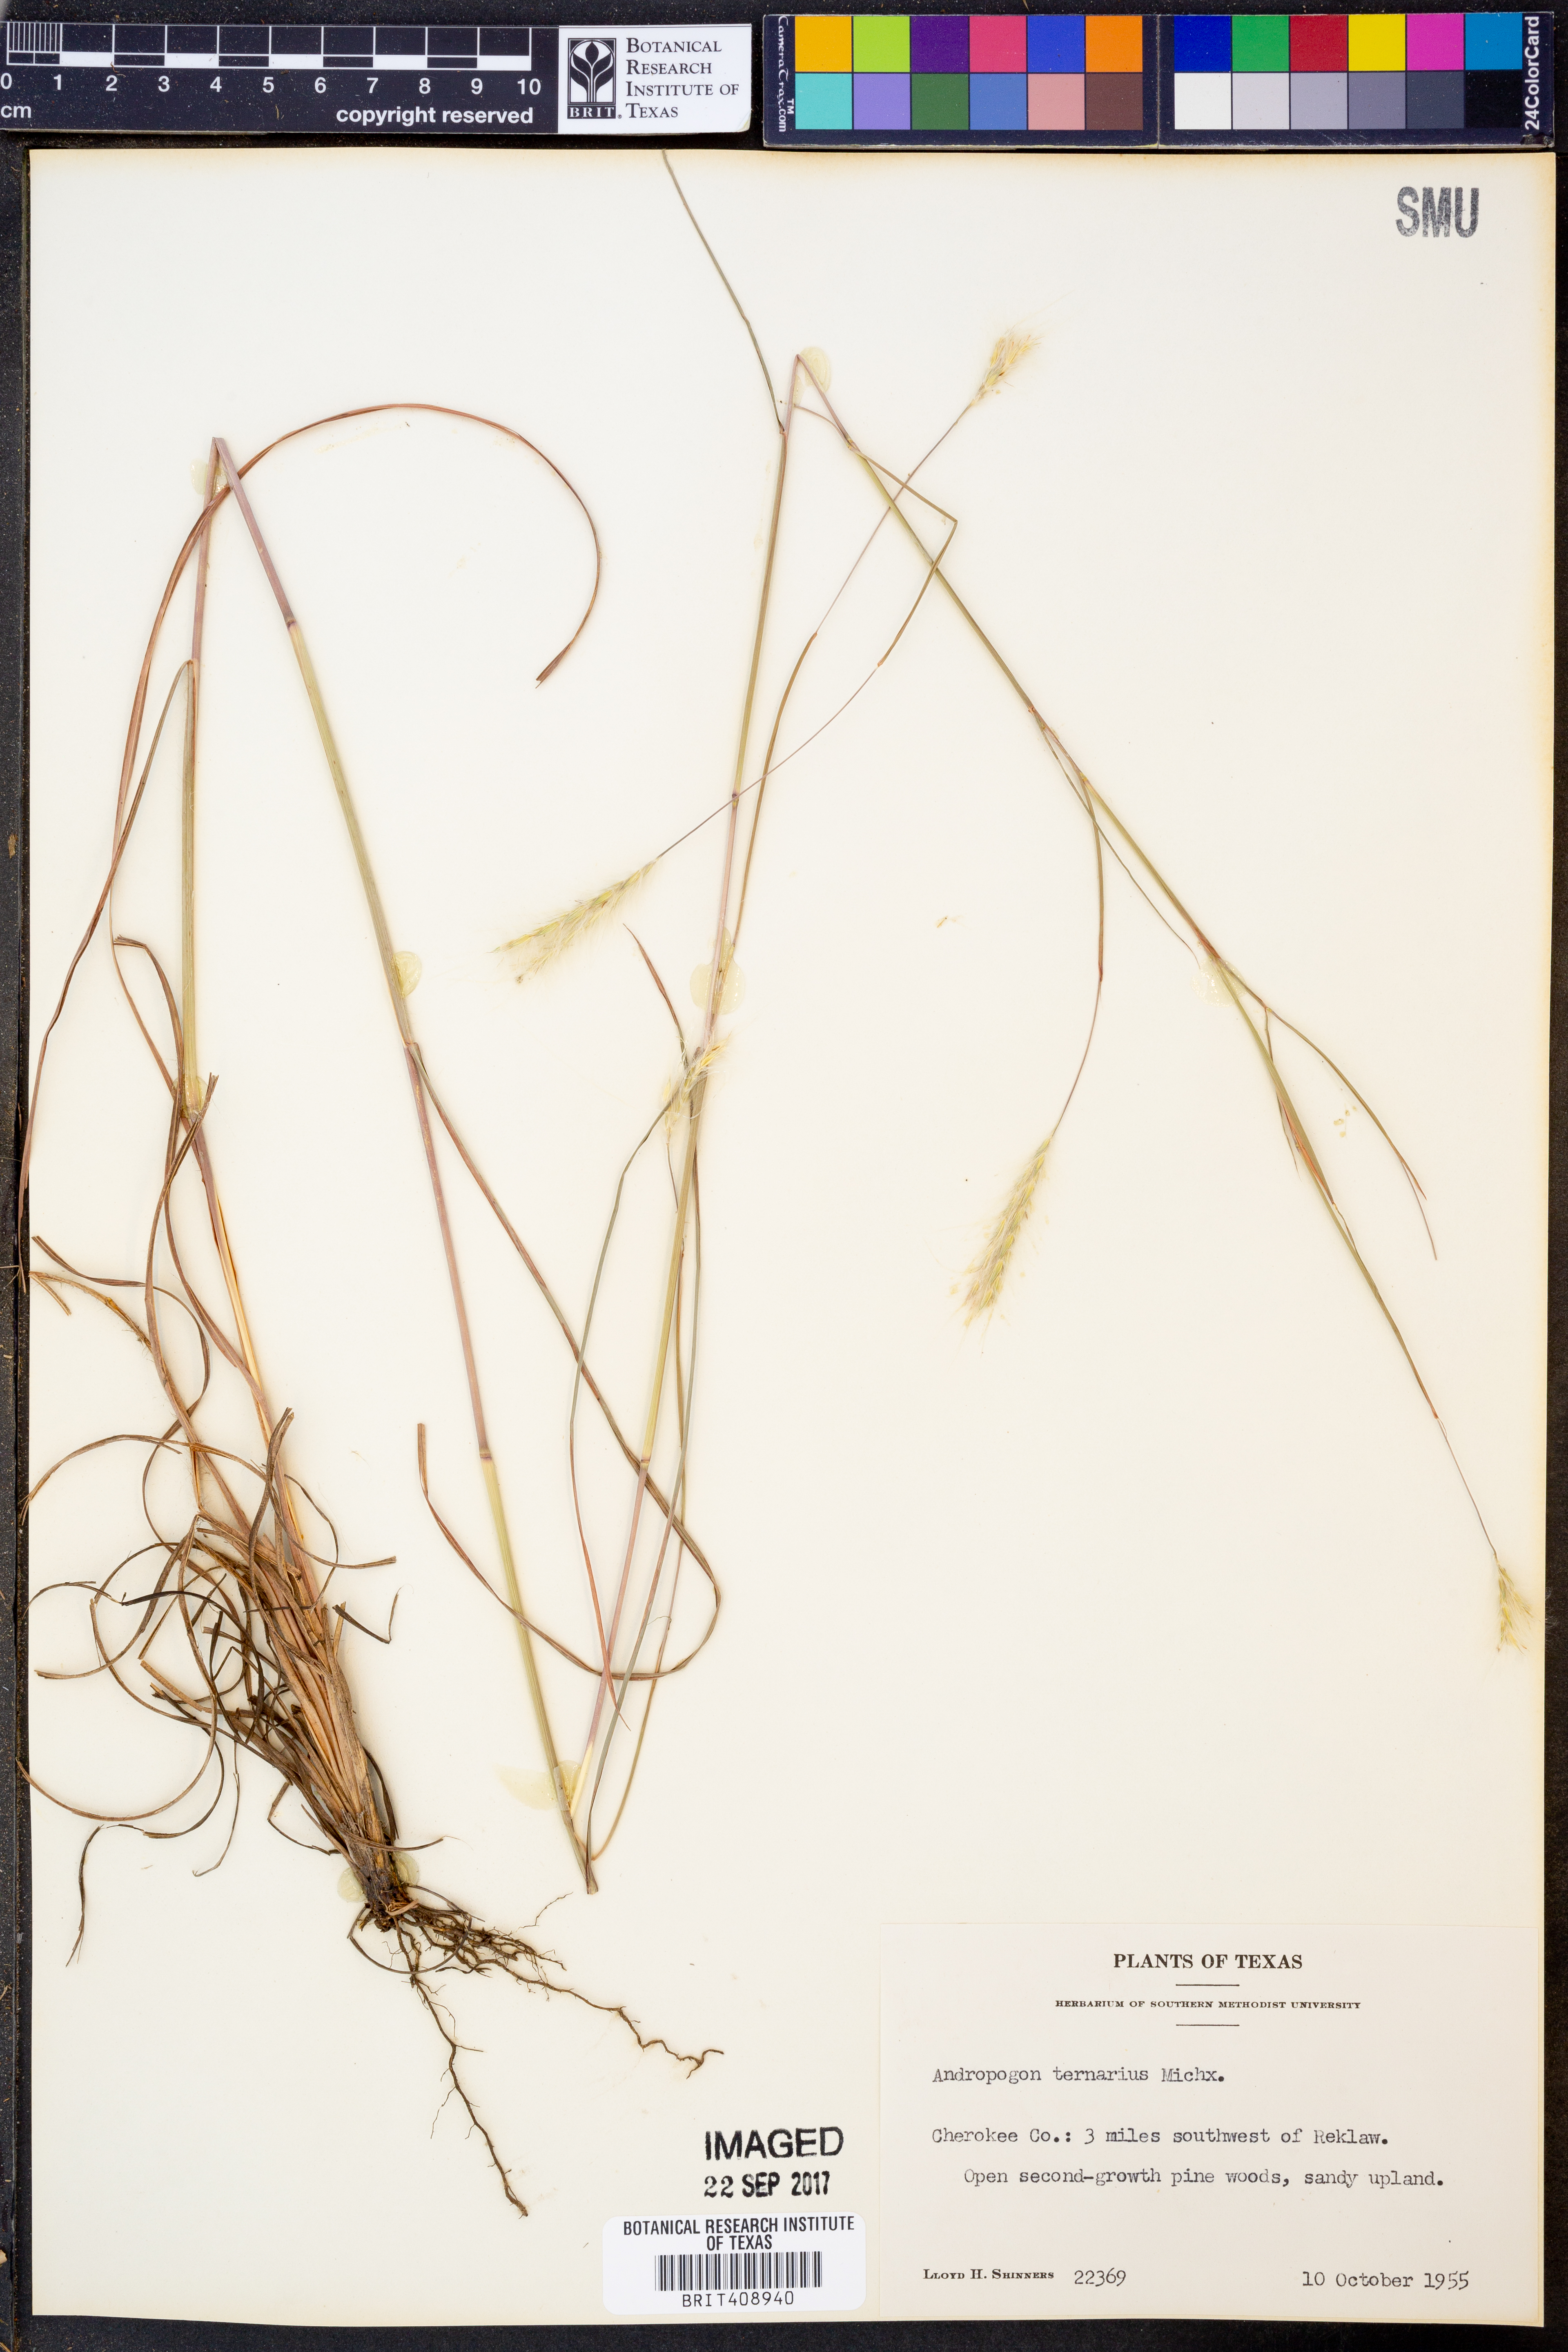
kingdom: Plantae
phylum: Tracheophyta
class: Liliopsida
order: Poales
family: Poaceae
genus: Andropogon
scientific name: Andropogon ternarius
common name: Split bluestem
